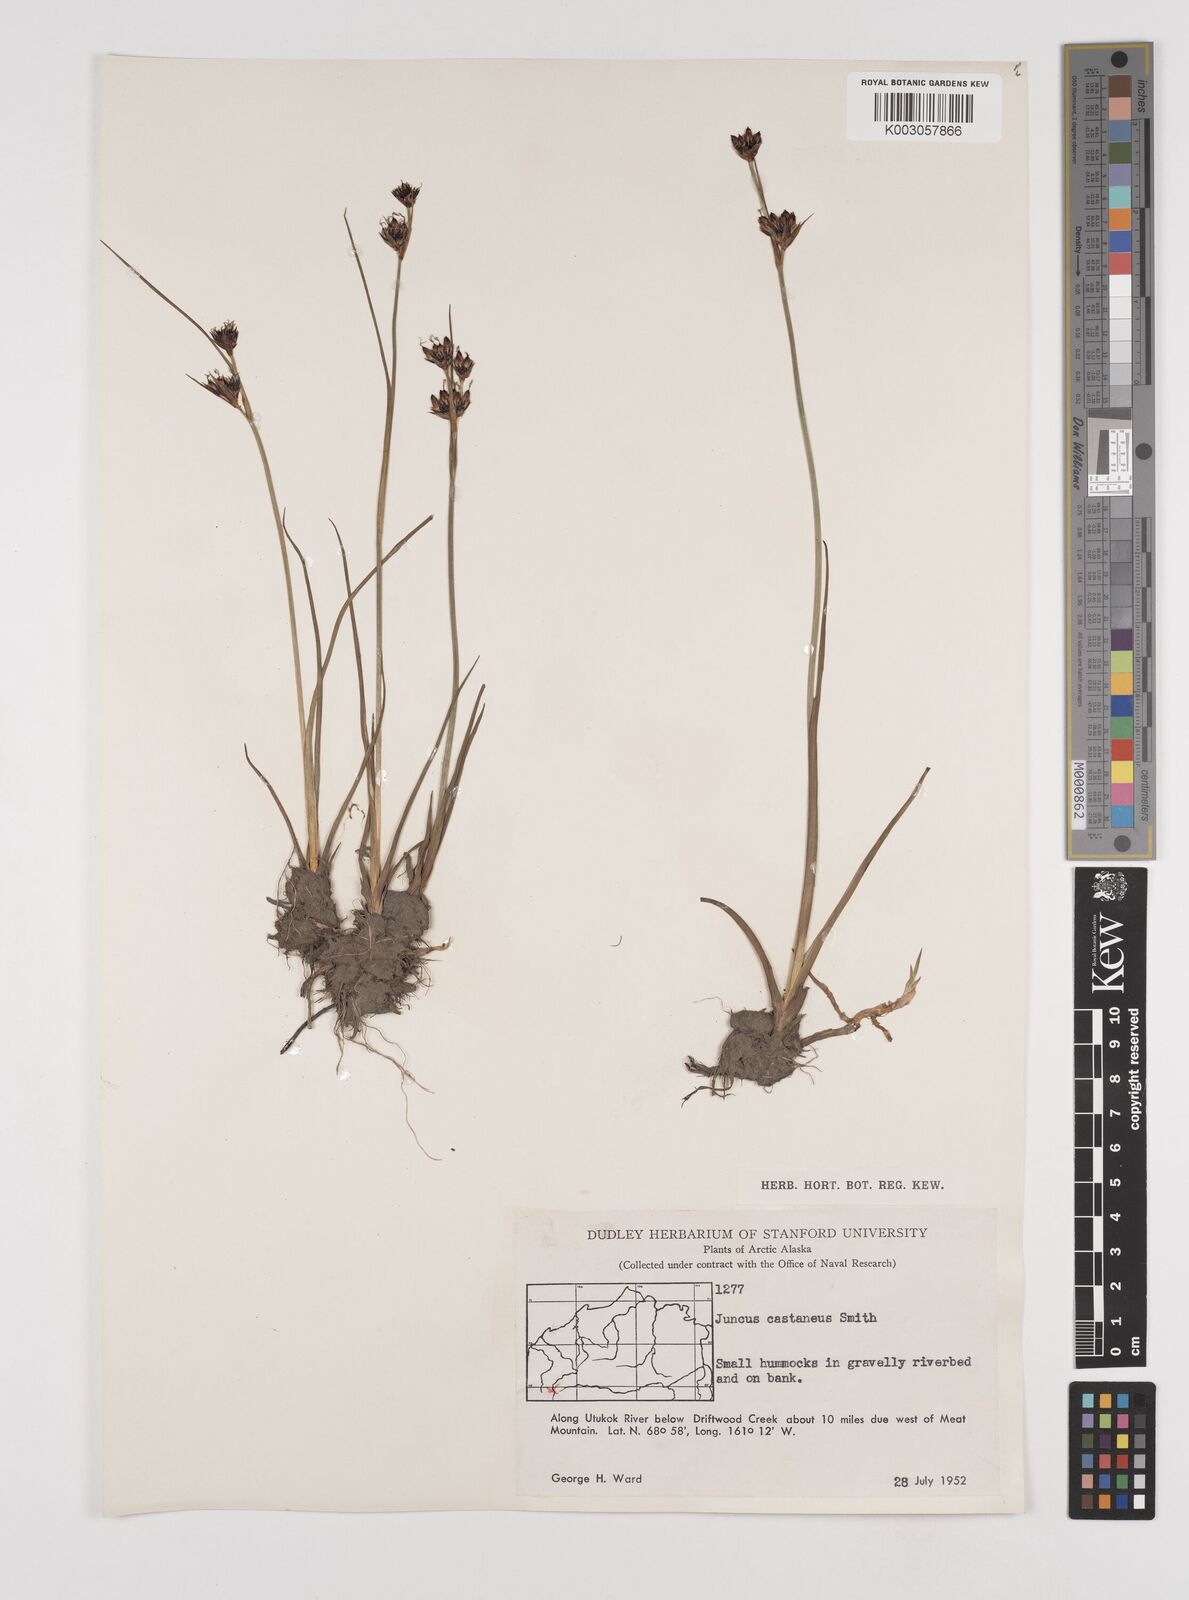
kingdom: Plantae
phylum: Tracheophyta
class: Liliopsida
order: Poales
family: Juncaceae
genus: Juncus
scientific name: Juncus castaneus
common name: Chestnut rush
